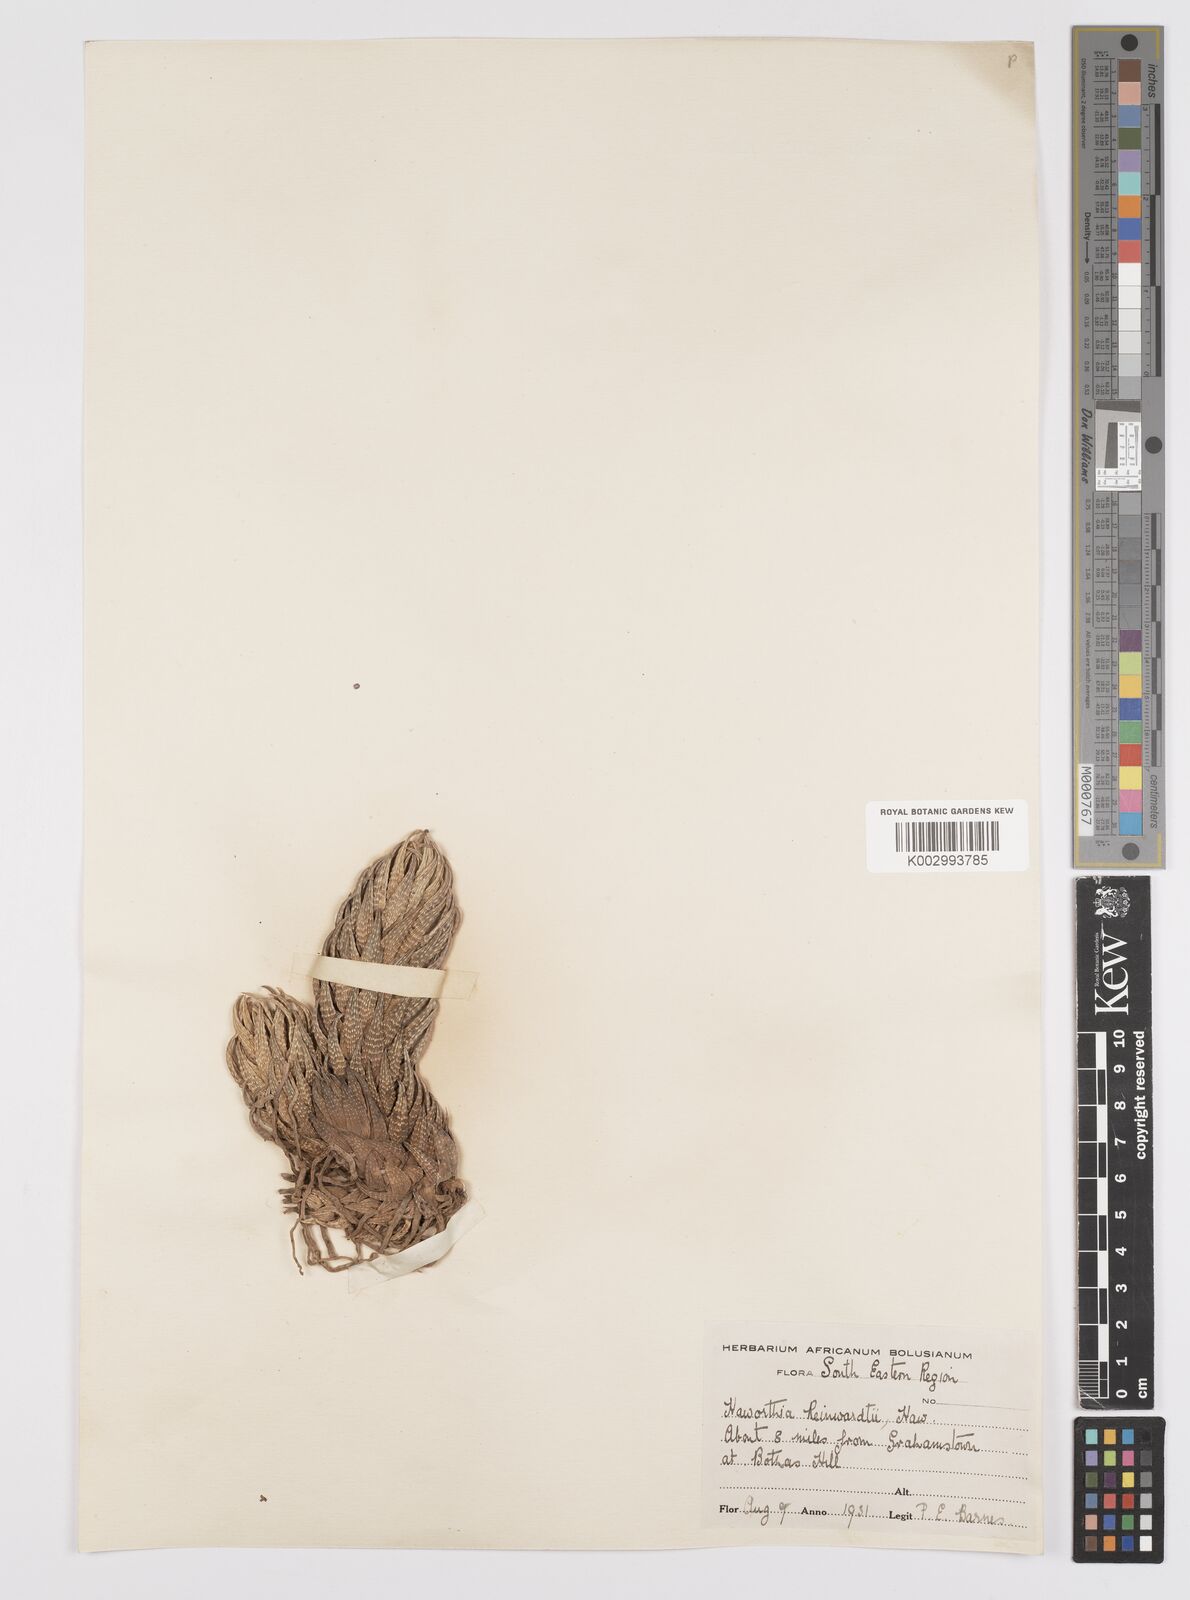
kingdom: Plantae
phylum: Tracheophyta
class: Liliopsida
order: Asparagales
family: Asphodelaceae
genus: Haworthiopsis
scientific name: Haworthiopsis reinwardtii
